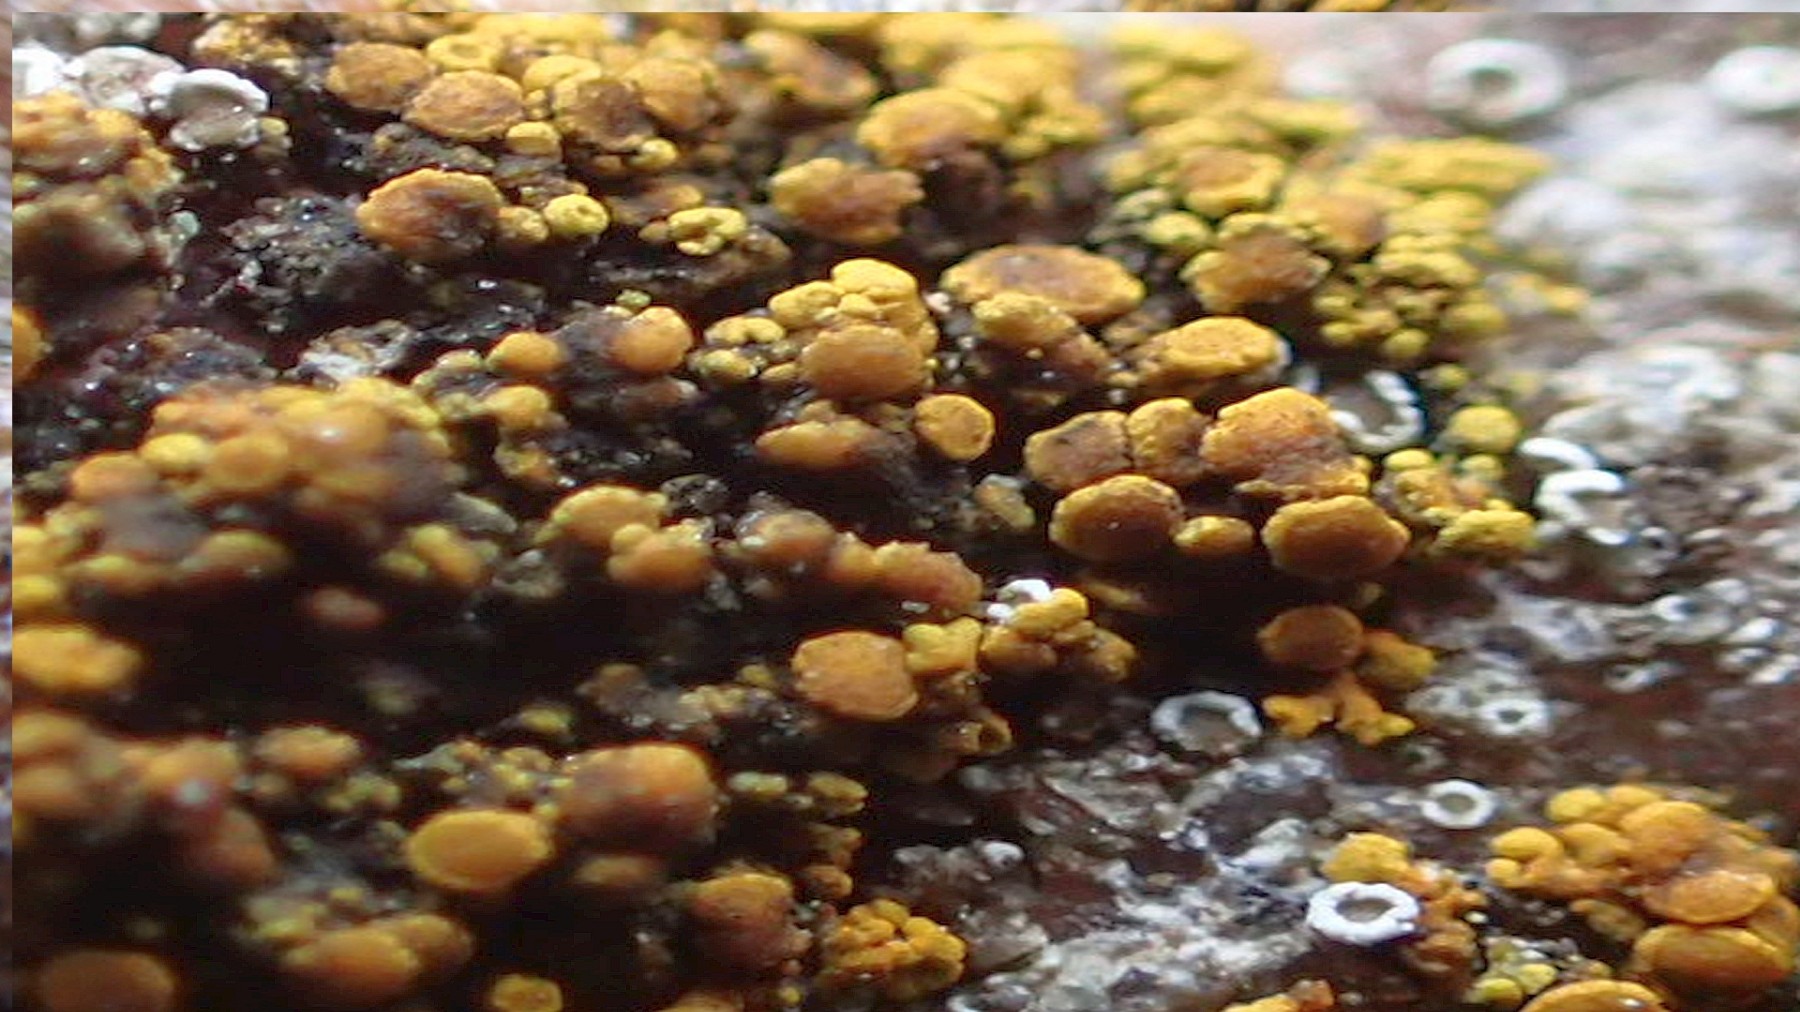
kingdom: Fungi
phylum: Ascomycota
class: Candelariomycetes
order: Candelariales
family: Candelariaceae
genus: Candelariella
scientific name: Candelariella vitellina
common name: almindelig æggeblommelav
